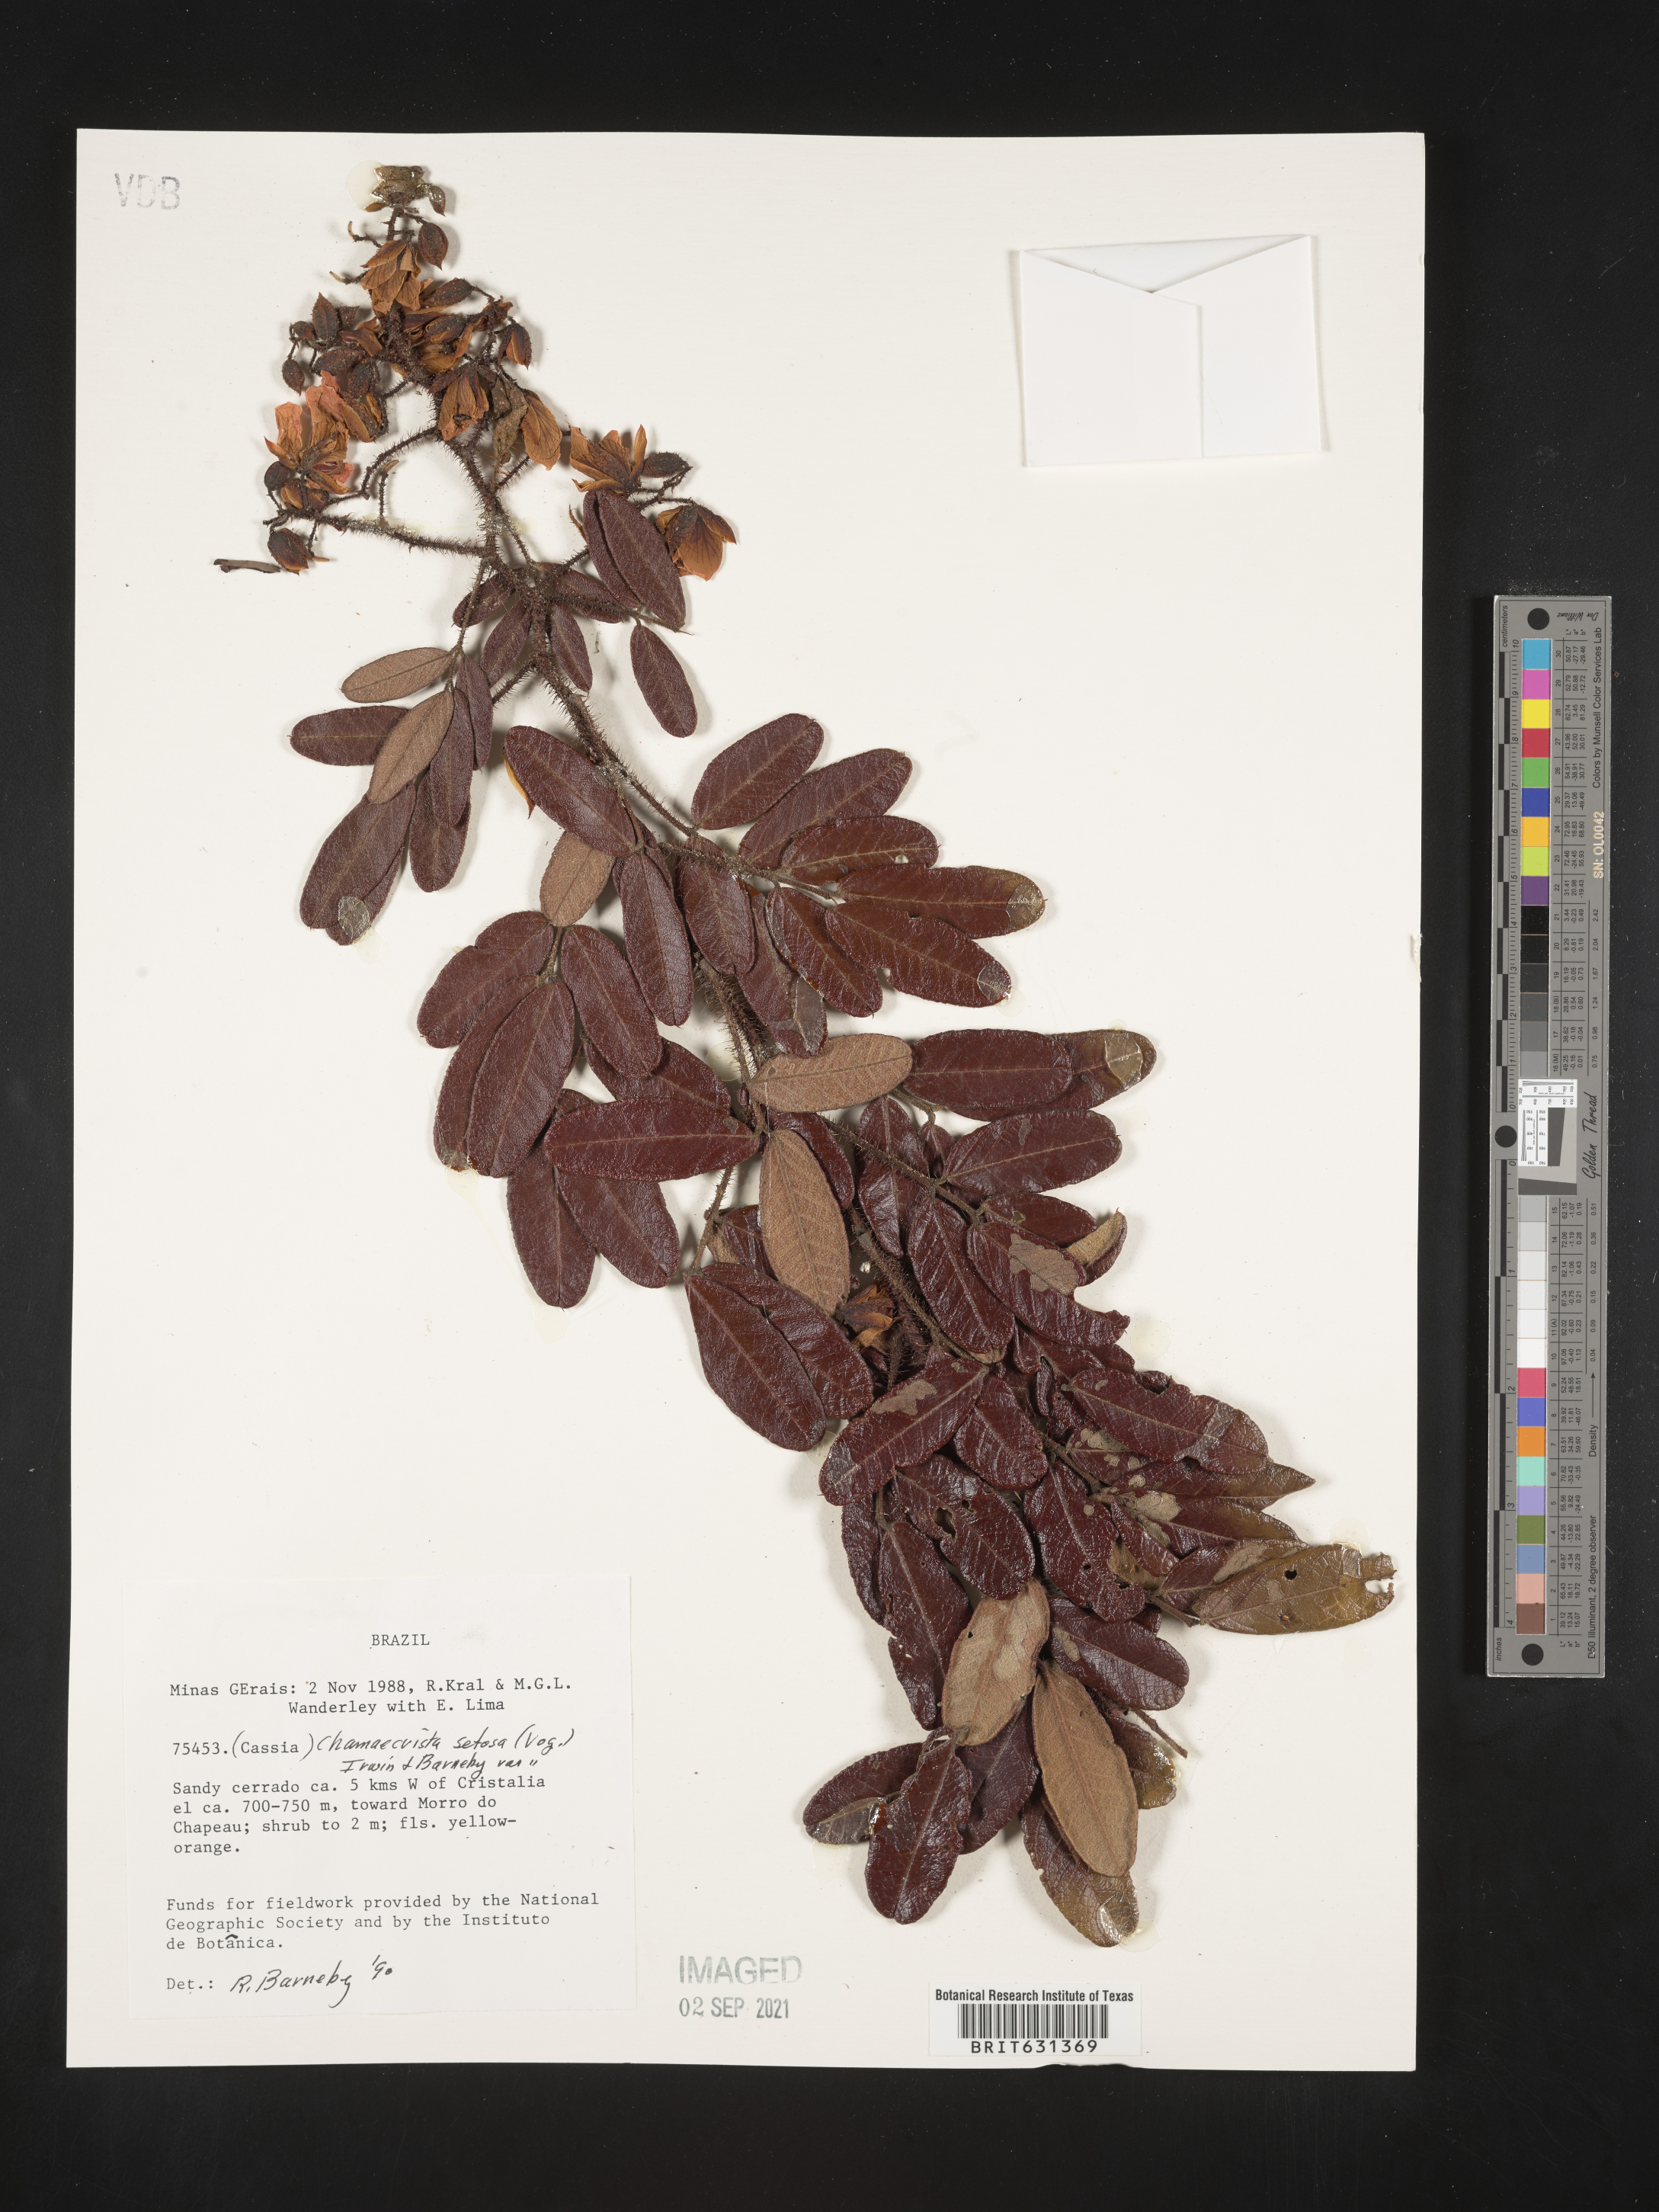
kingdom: Plantae
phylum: Tracheophyta
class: Magnoliopsida
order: Fabales
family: Fabaceae
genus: Chamaecrista
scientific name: Chamaecrista setosa
